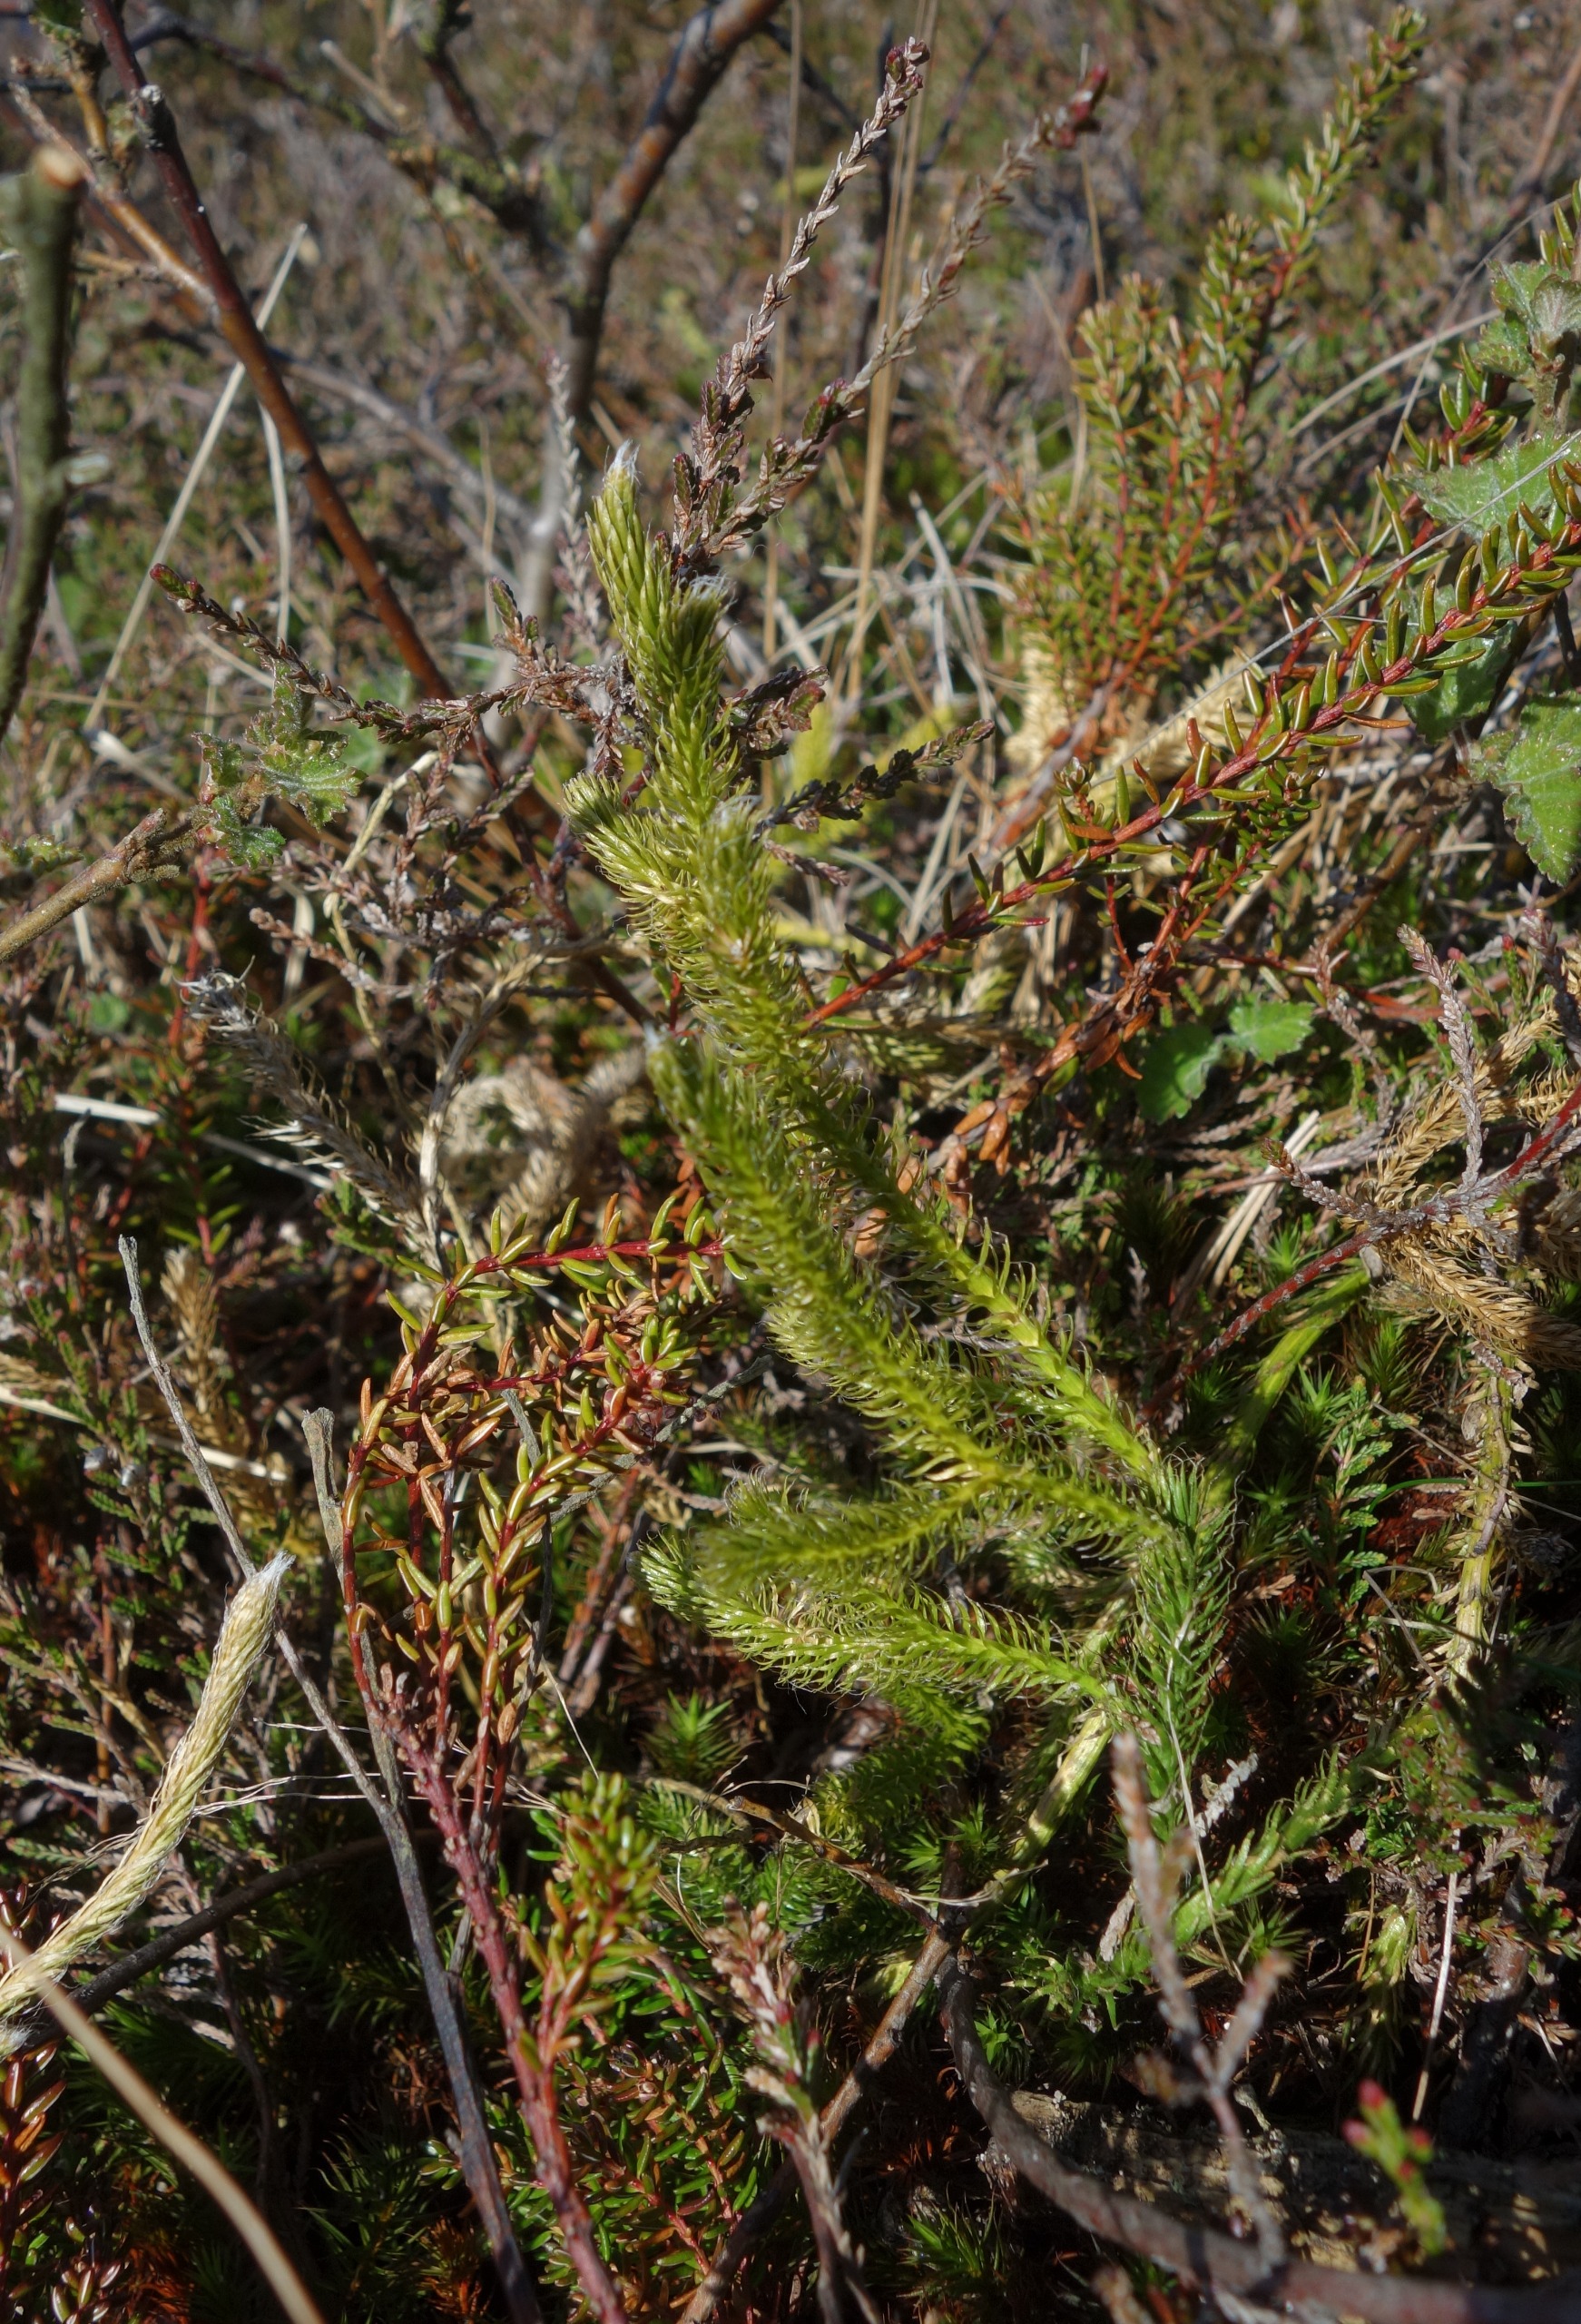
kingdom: Plantae
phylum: Tracheophyta
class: Lycopodiopsida
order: Lycopodiales
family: Lycopodiaceae
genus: Lycopodium
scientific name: Lycopodium clavatum
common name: Almindelig ulvefod
